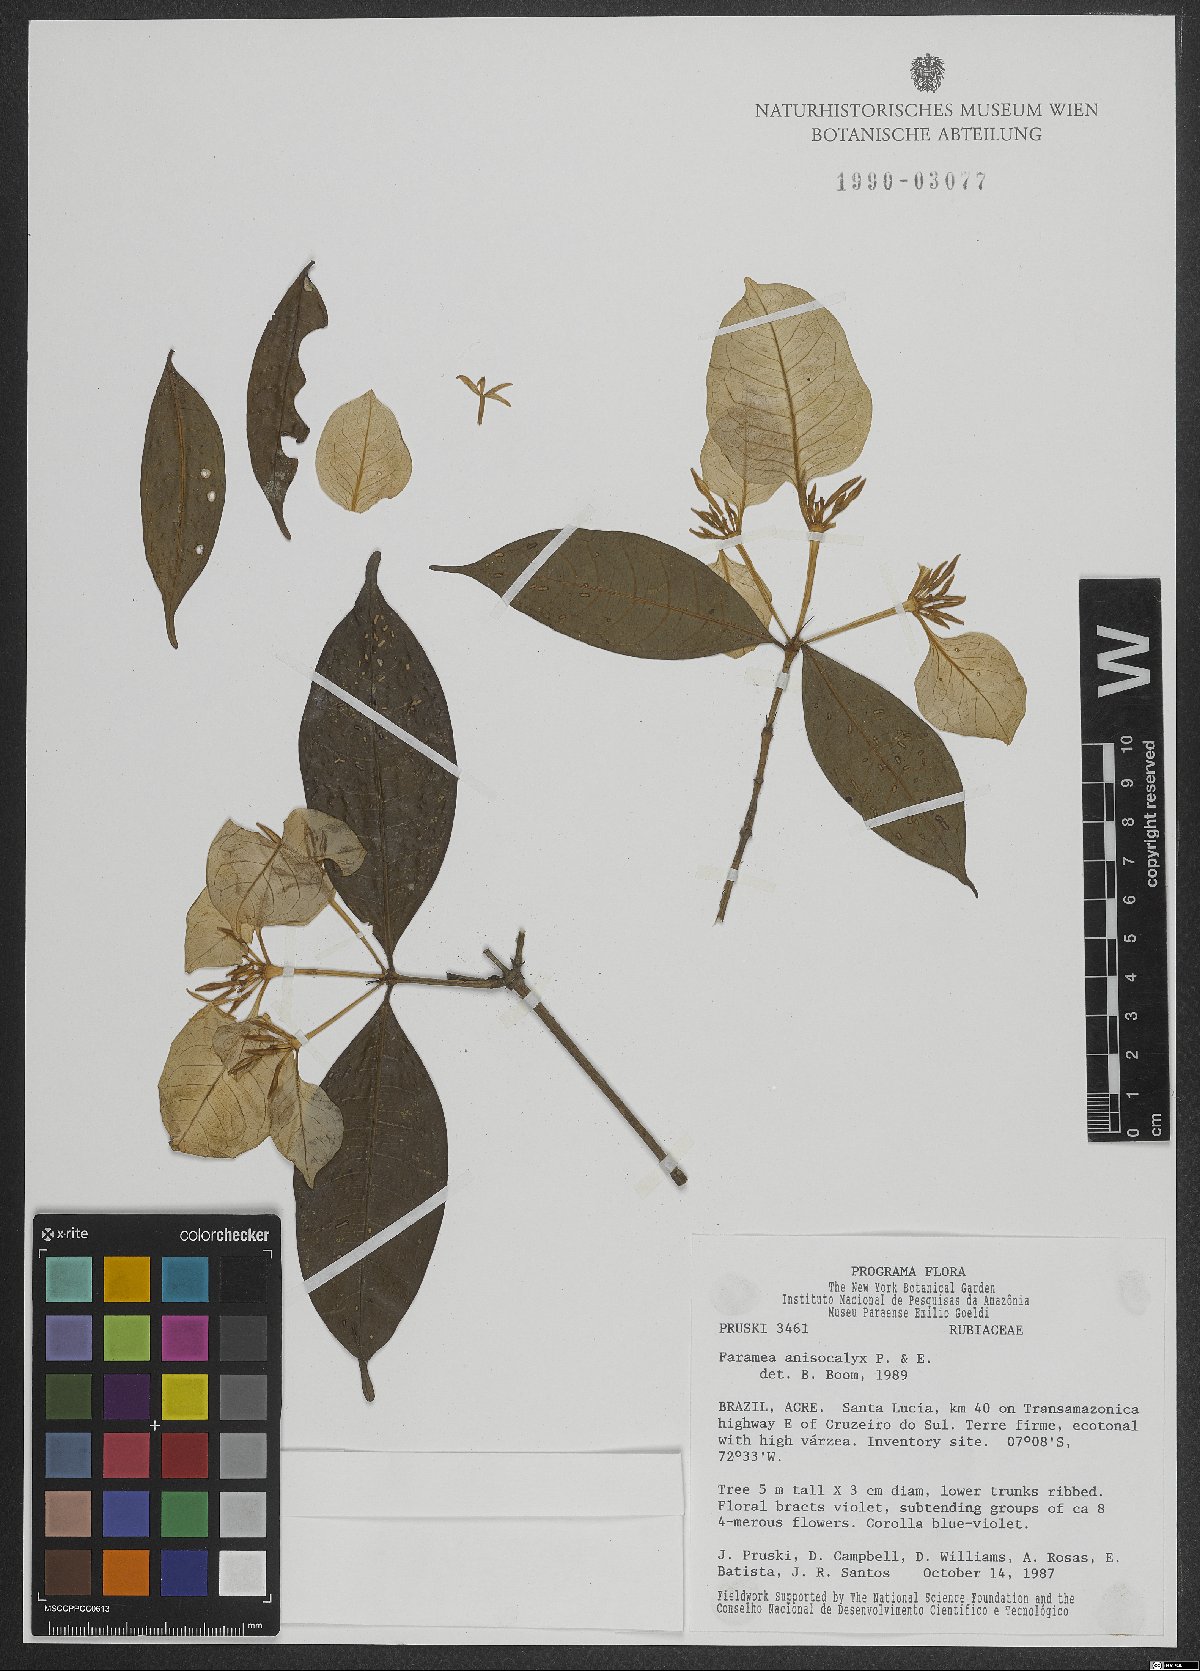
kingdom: Plantae
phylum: Tracheophyta
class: Magnoliopsida
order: Gentianales
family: Rubiaceae
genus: Faramea
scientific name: Faramea anisocalyx
